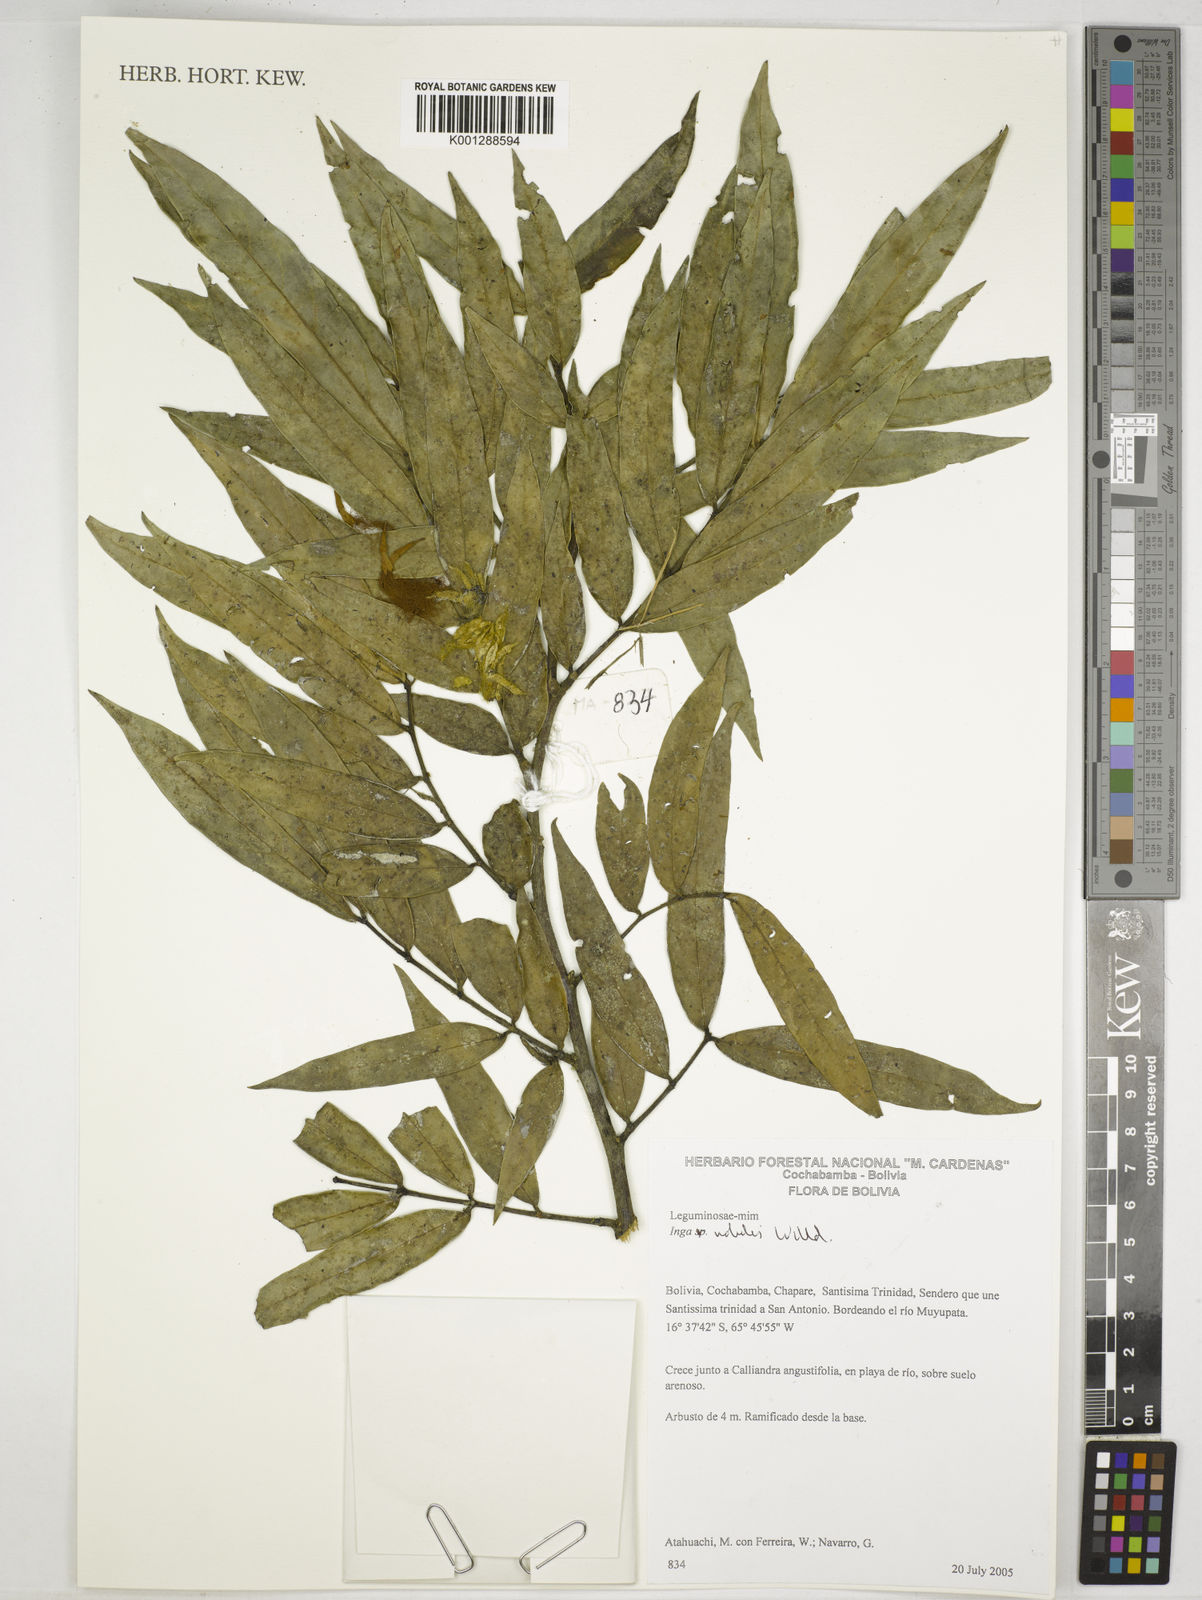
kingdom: Plantae
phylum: Tracheophyta
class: Magnoliopsida
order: Fabales
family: Fabaceae
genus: Inga
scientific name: Inga nobilis
